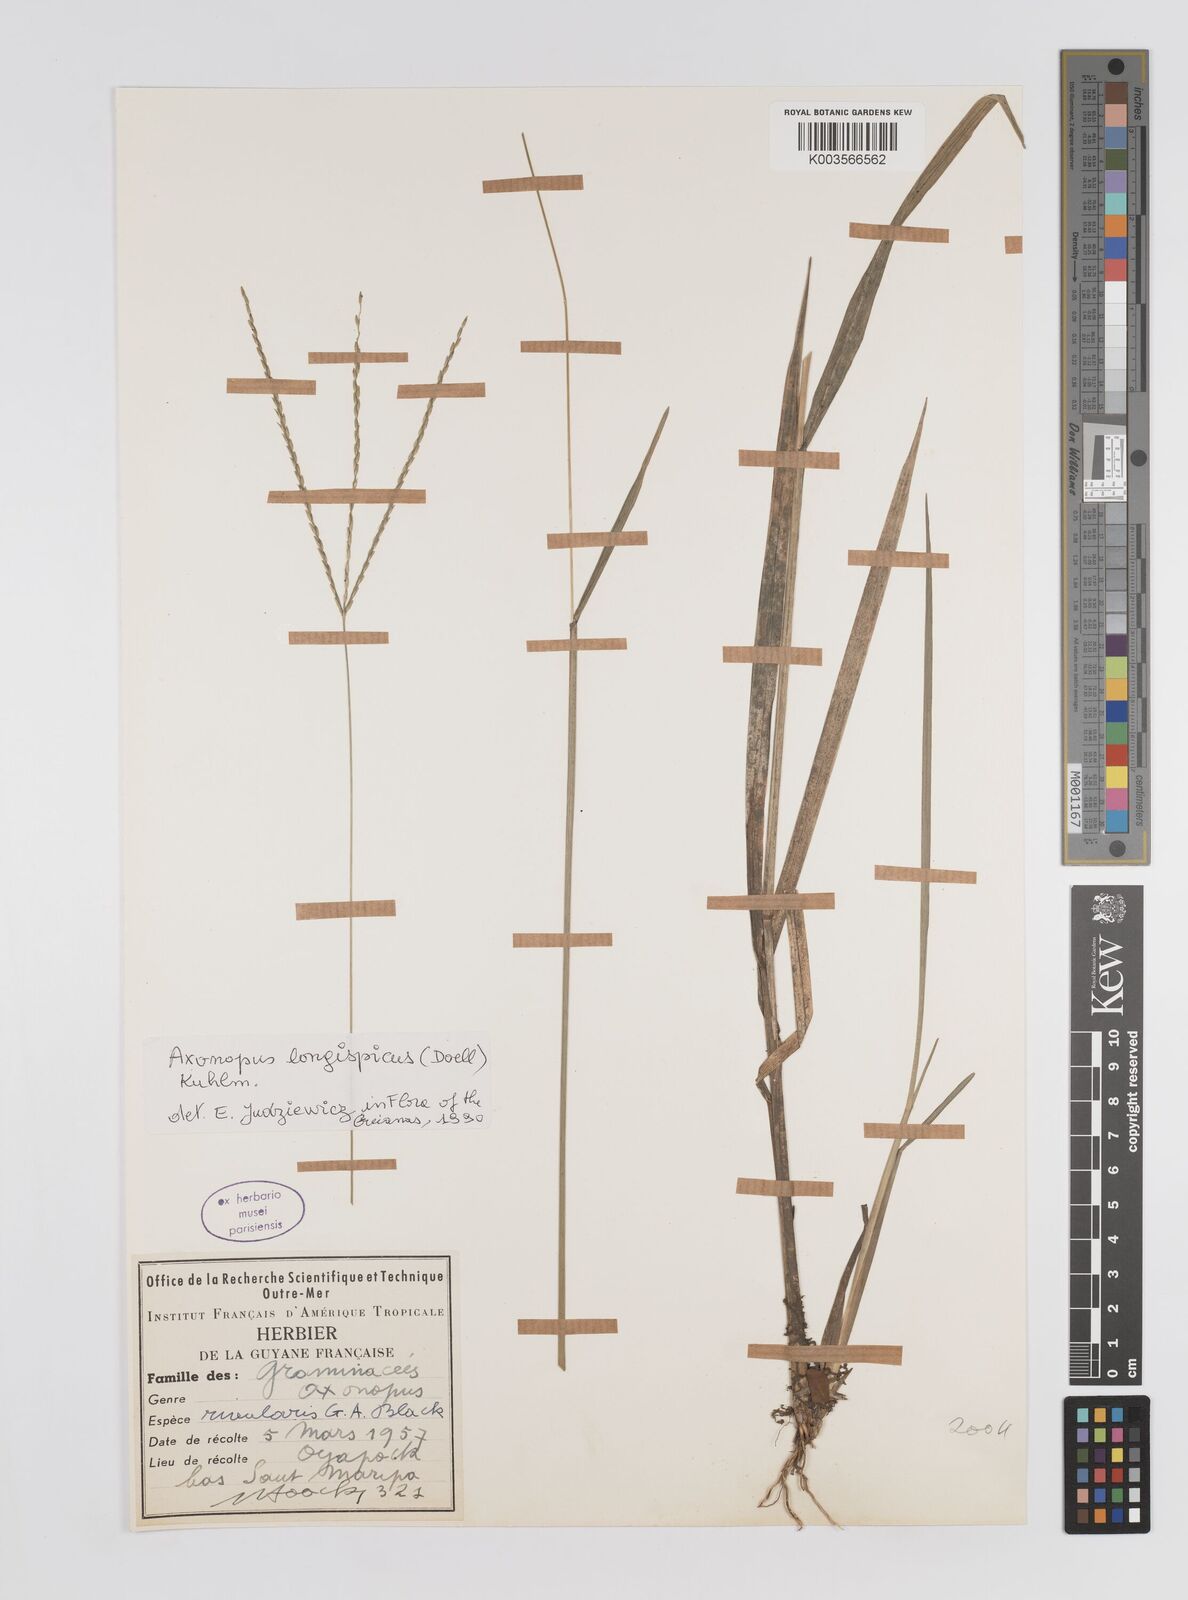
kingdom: Plantae
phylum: Tracheophyta
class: Liliopsida
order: Poales
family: Poaceae
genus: Axonopus
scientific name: Axonopus longispicus
